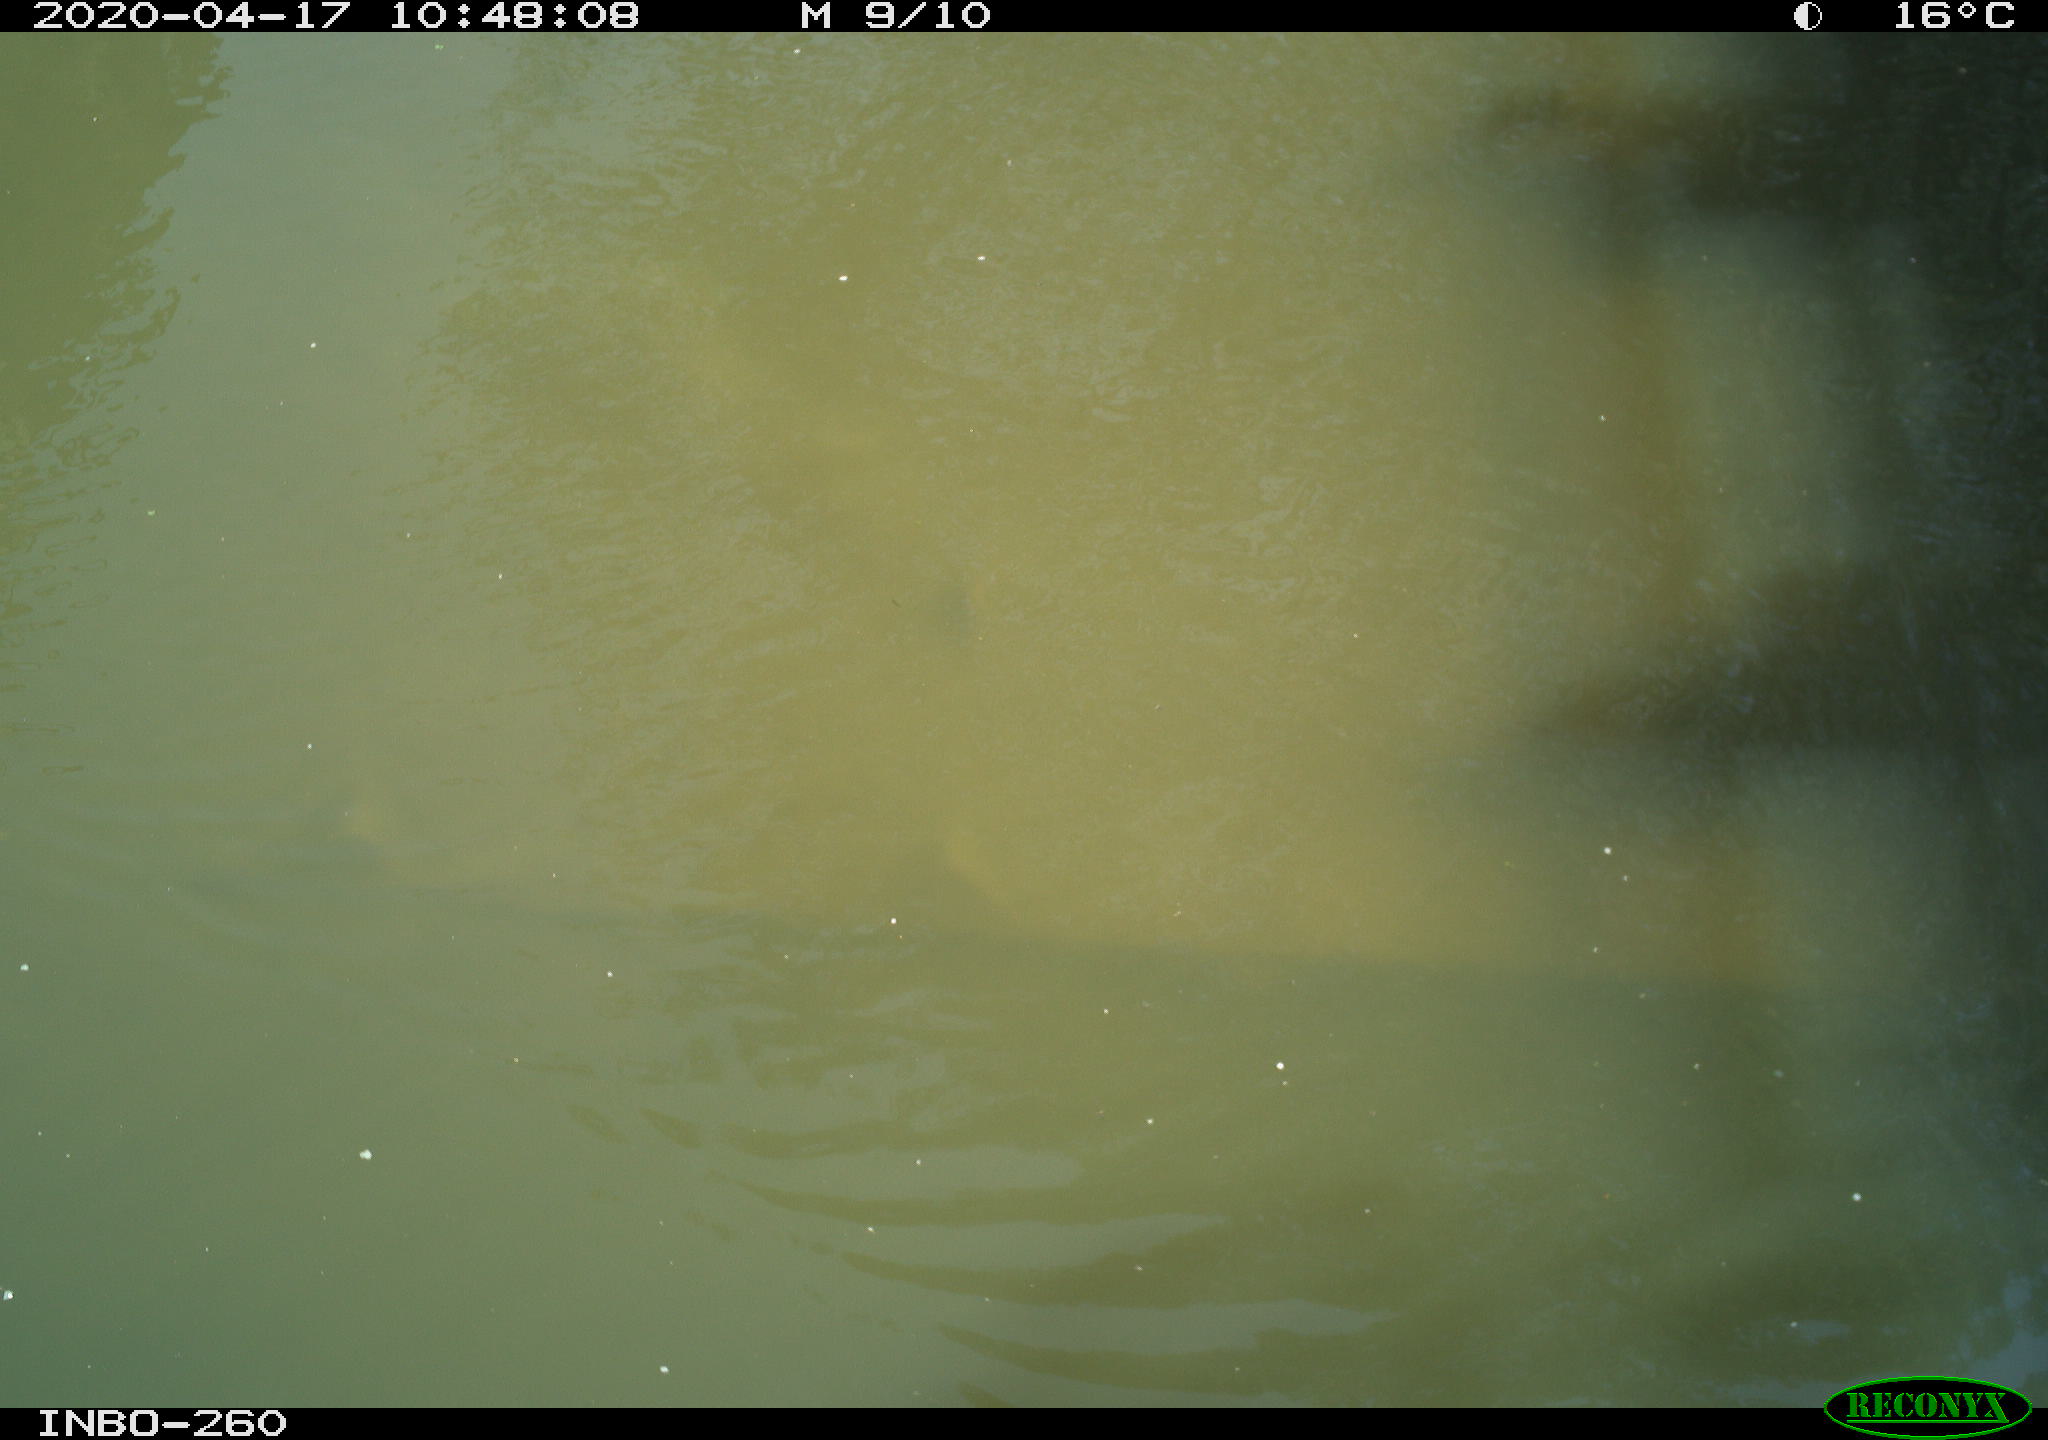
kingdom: Animalia
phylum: Chordata
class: Aves
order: Anseriformes
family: Anatidae
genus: Anas
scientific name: Anas platyrhynchos
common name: Mallard
